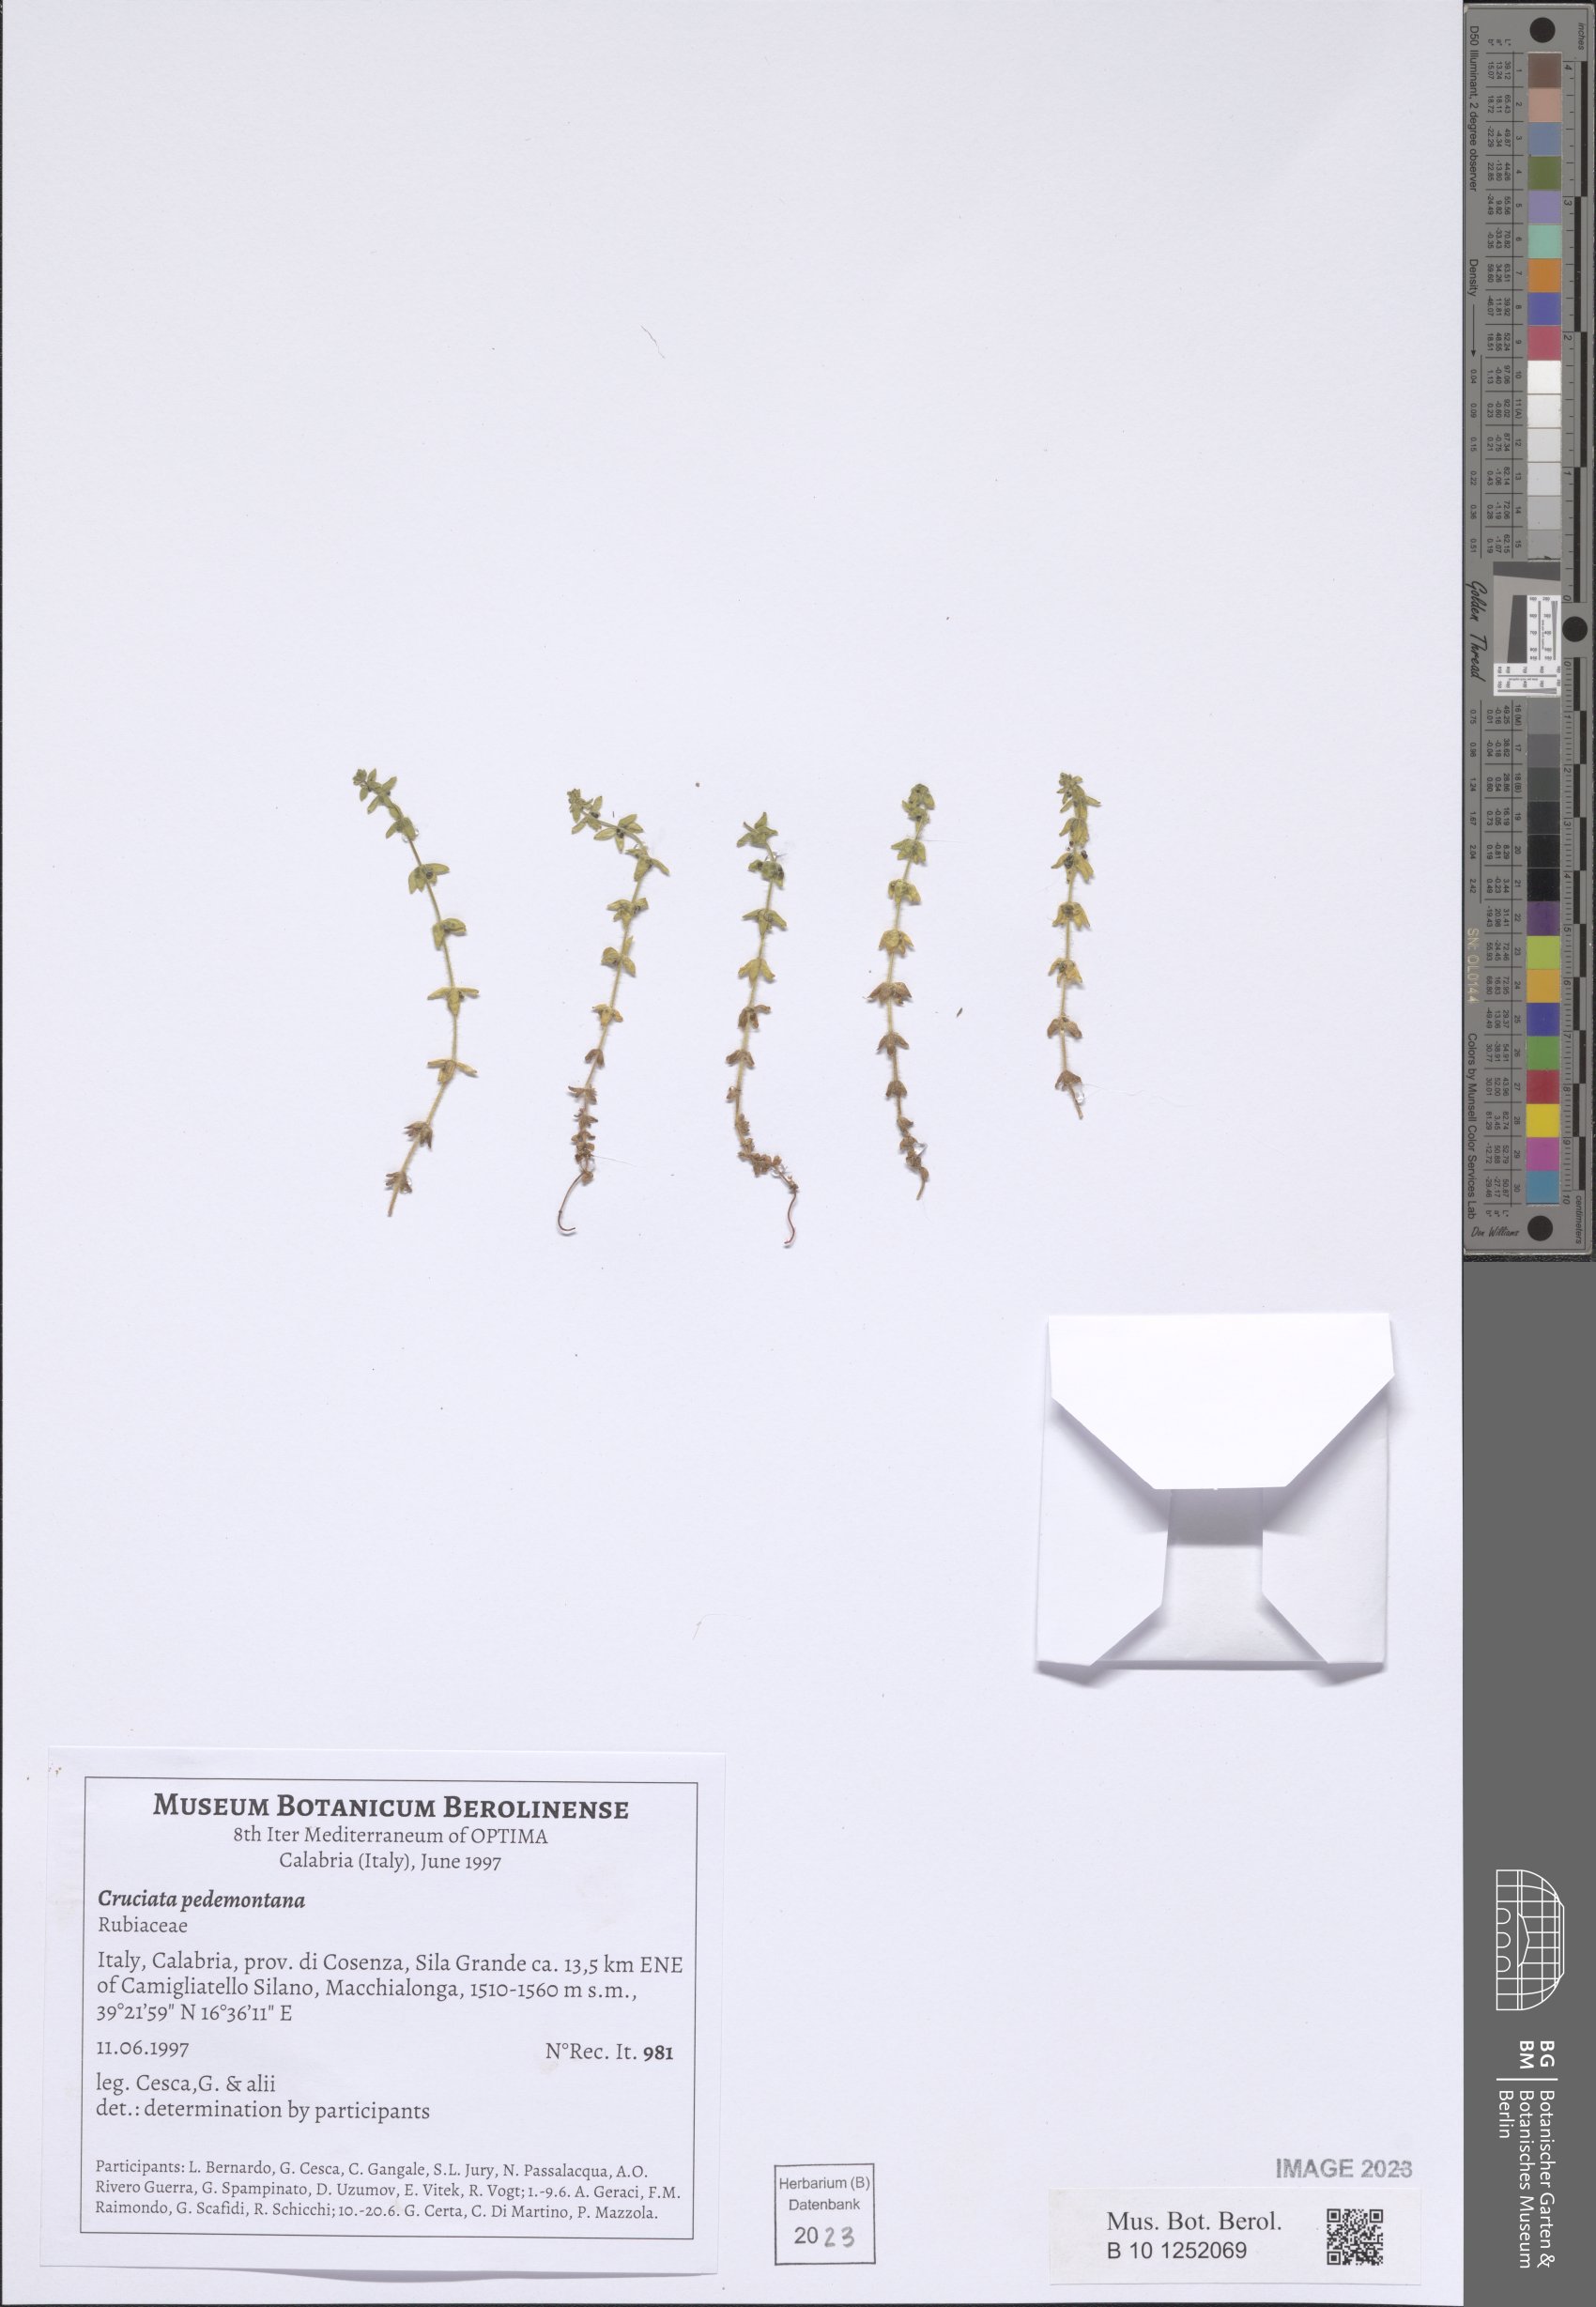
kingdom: Plantae
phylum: Tracheophyta
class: Magnoliopsida
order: Gentianales
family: Rubiaceae
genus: Cruciata
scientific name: Cruciata pedemontana
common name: Piedmont bedstraw
